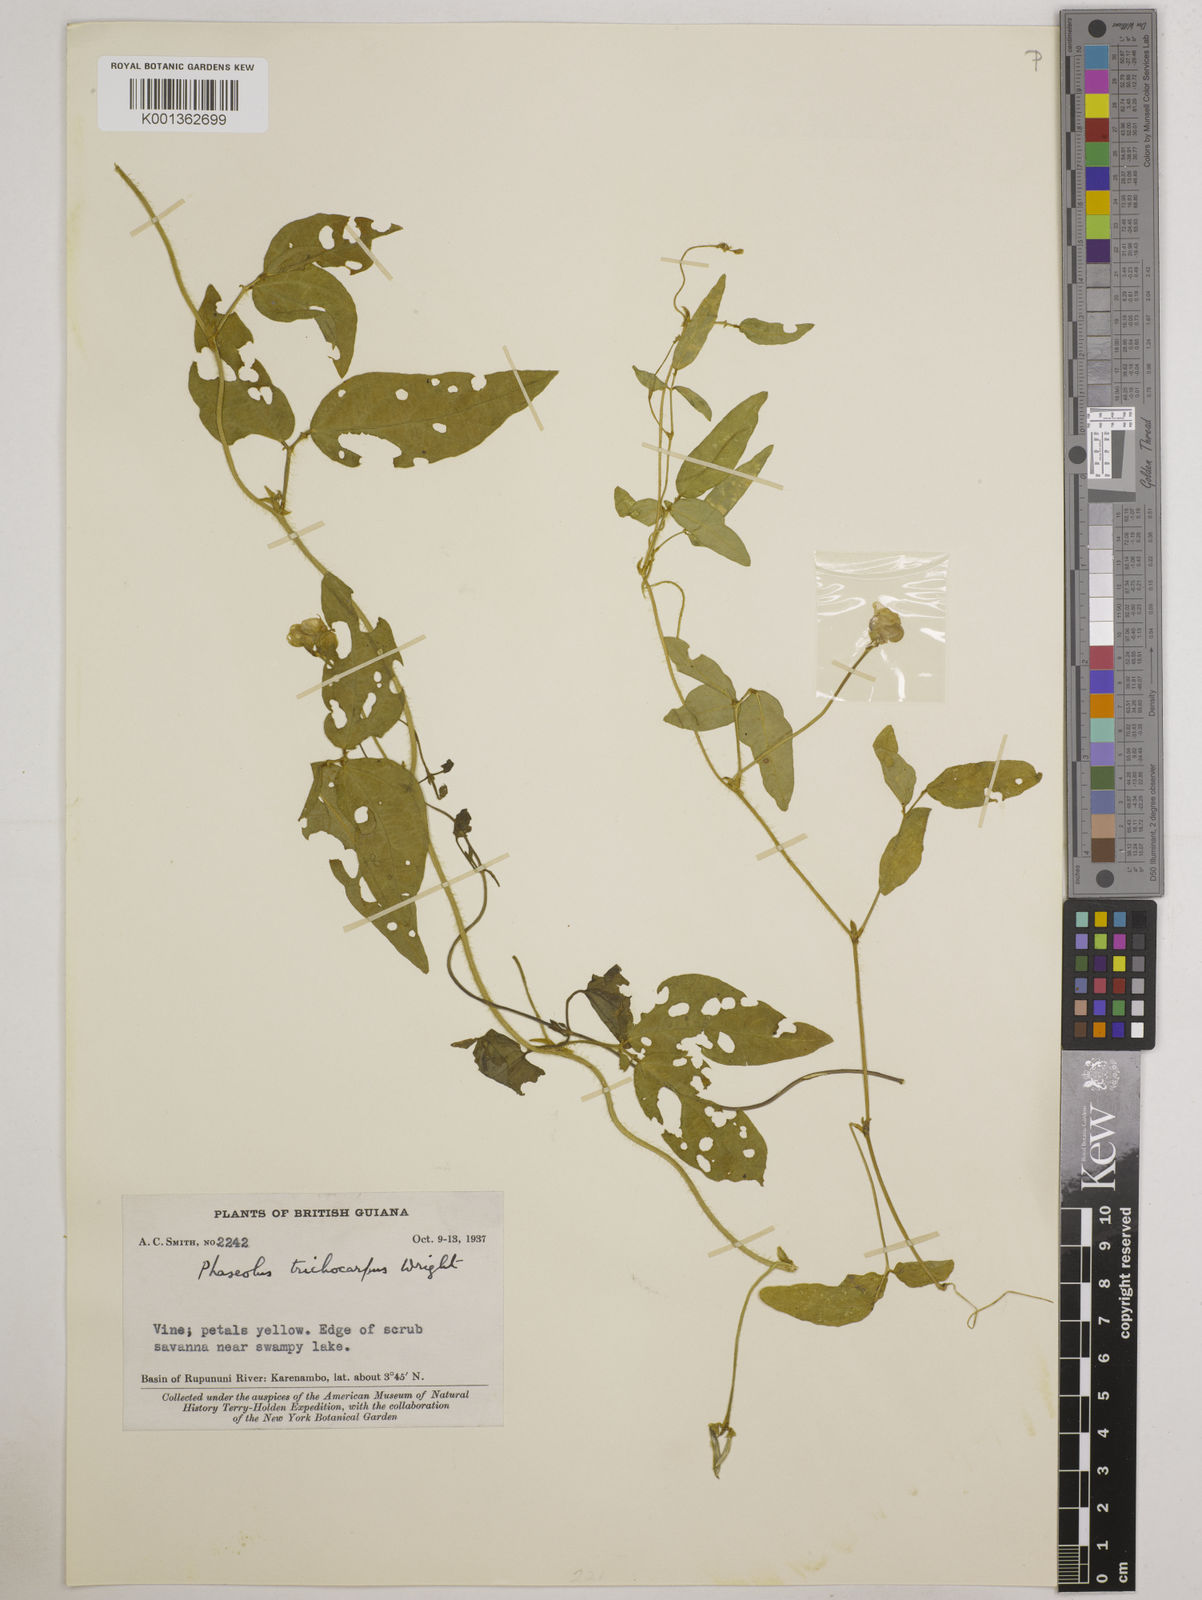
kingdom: Plantae
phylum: Tracheophyta
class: Magnoliopsida
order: Fabales
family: Fabaceae
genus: Vigna
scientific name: Vigna trichocarpa
